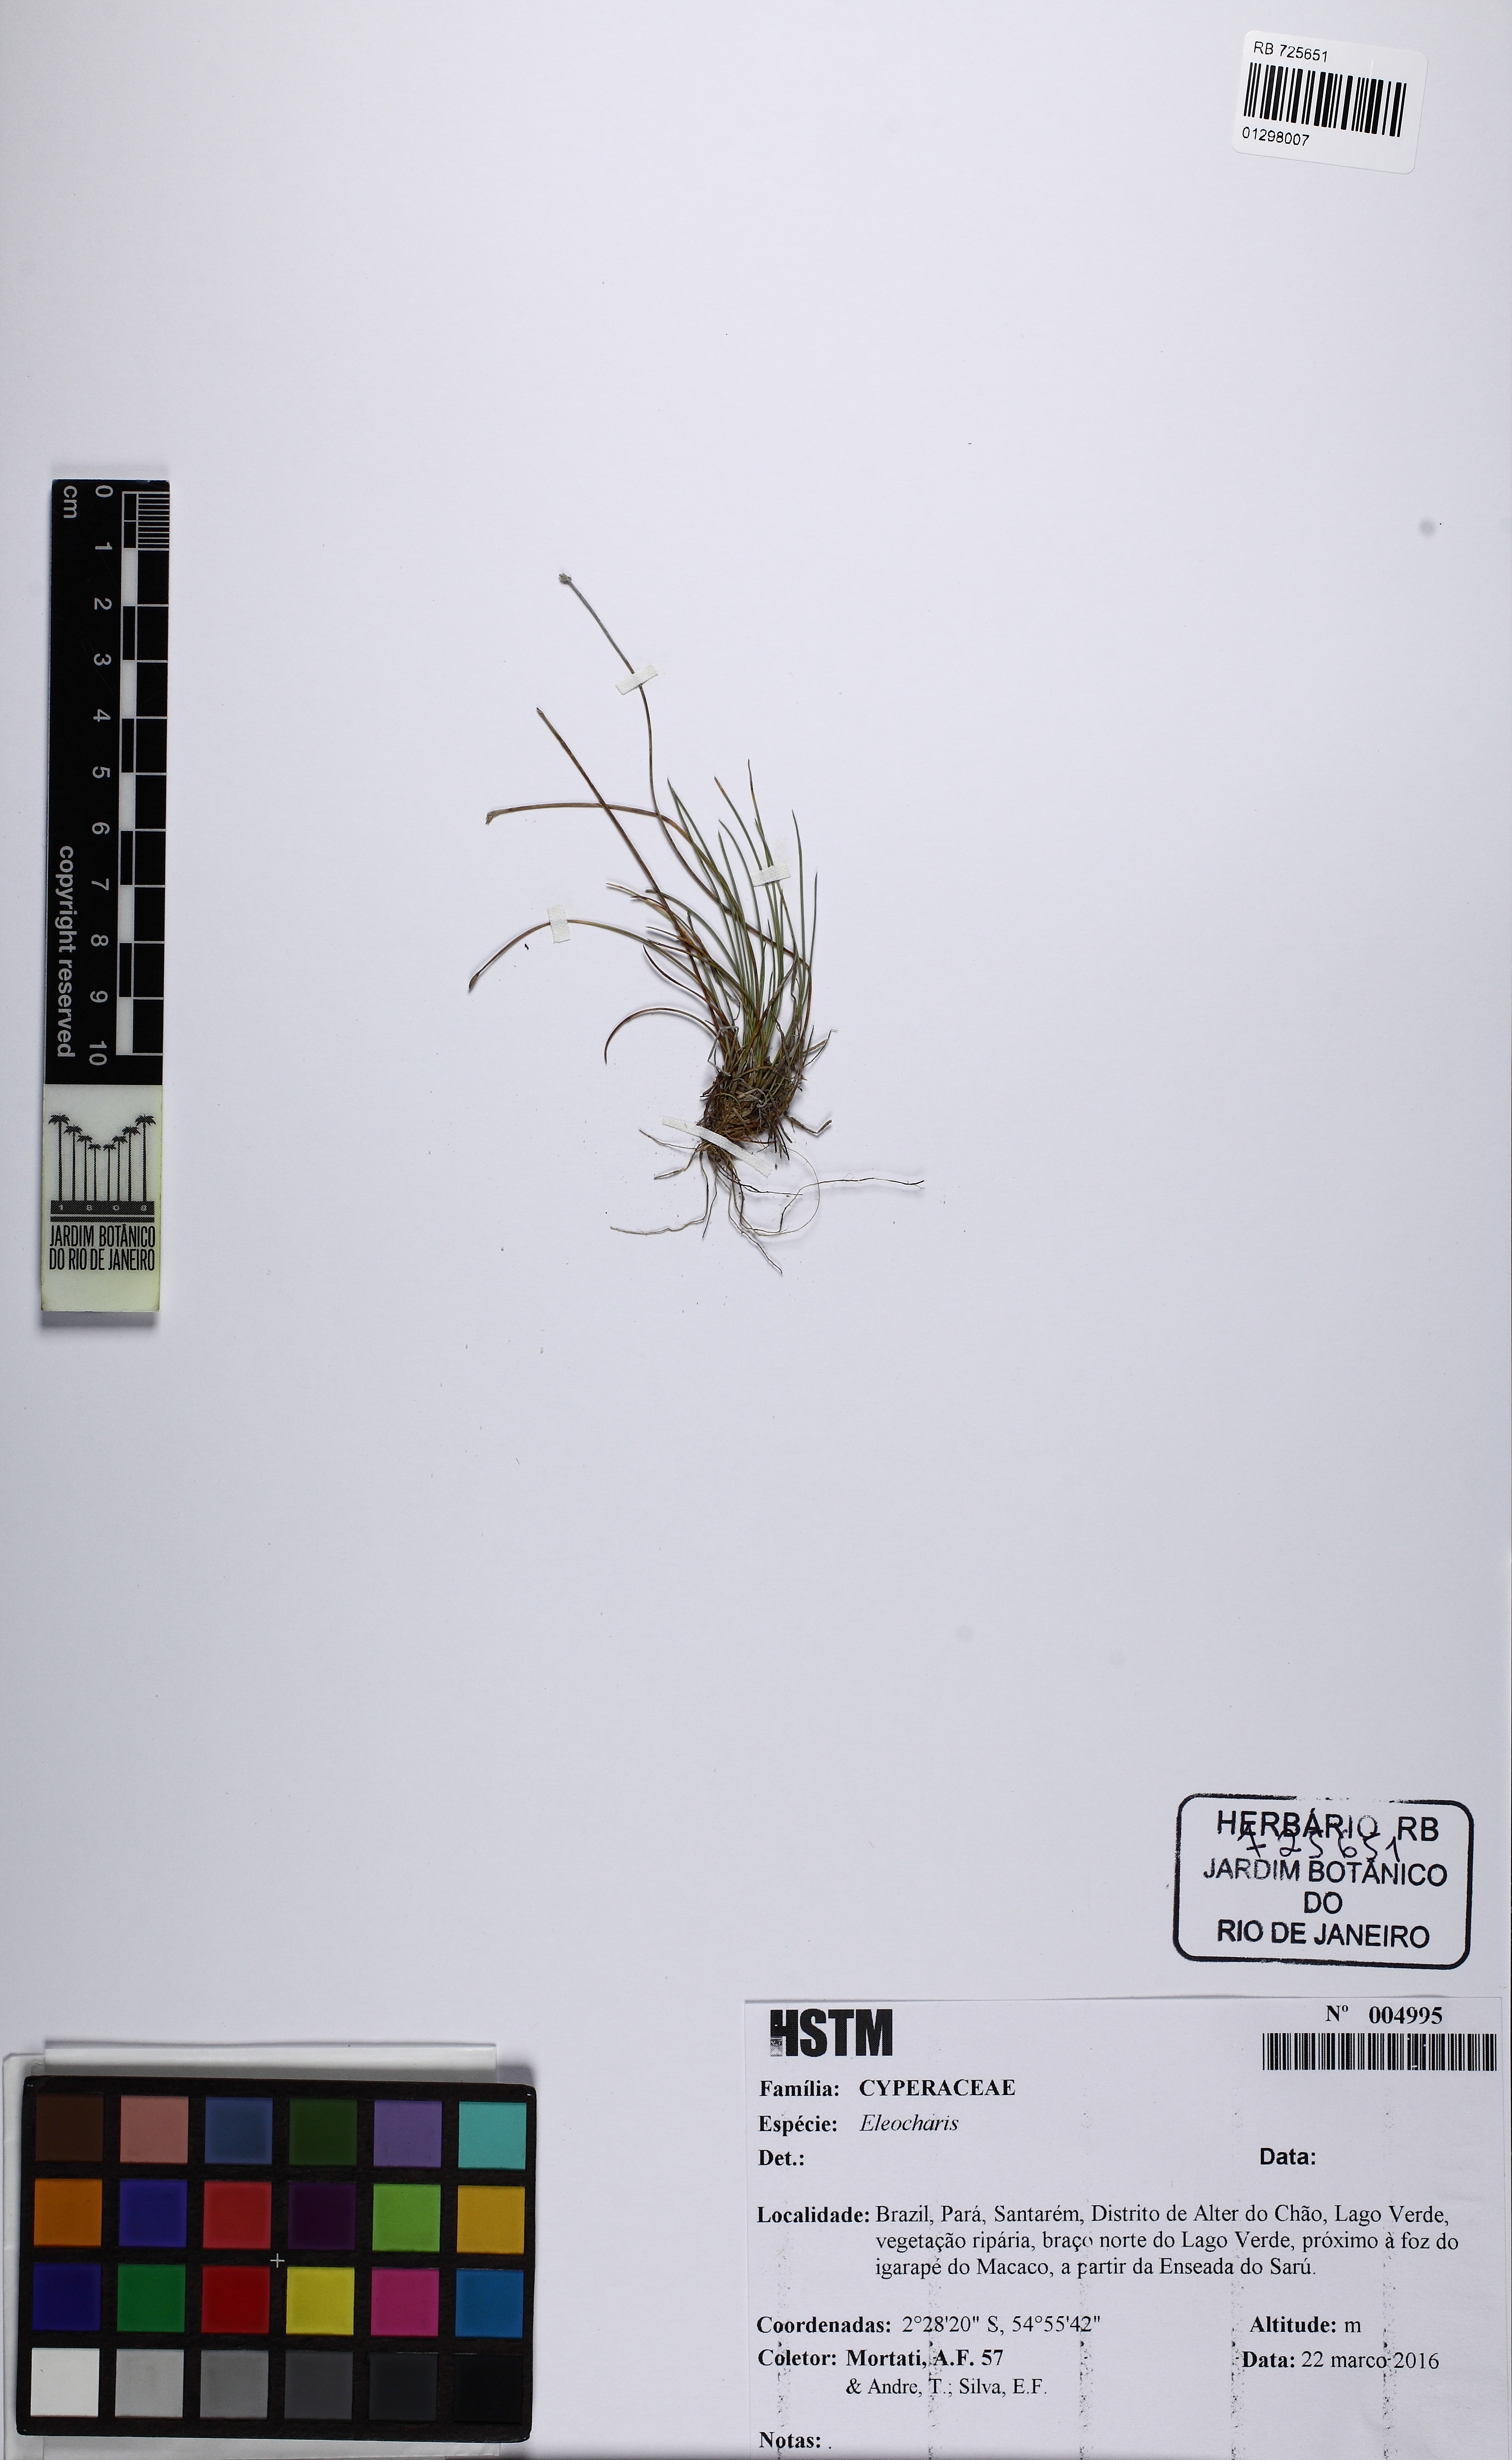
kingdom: Plantae
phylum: Tracheophyta
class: Liliopsida
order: Poales
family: Cyperaceae
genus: Eleocharis
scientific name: Eleocharis
